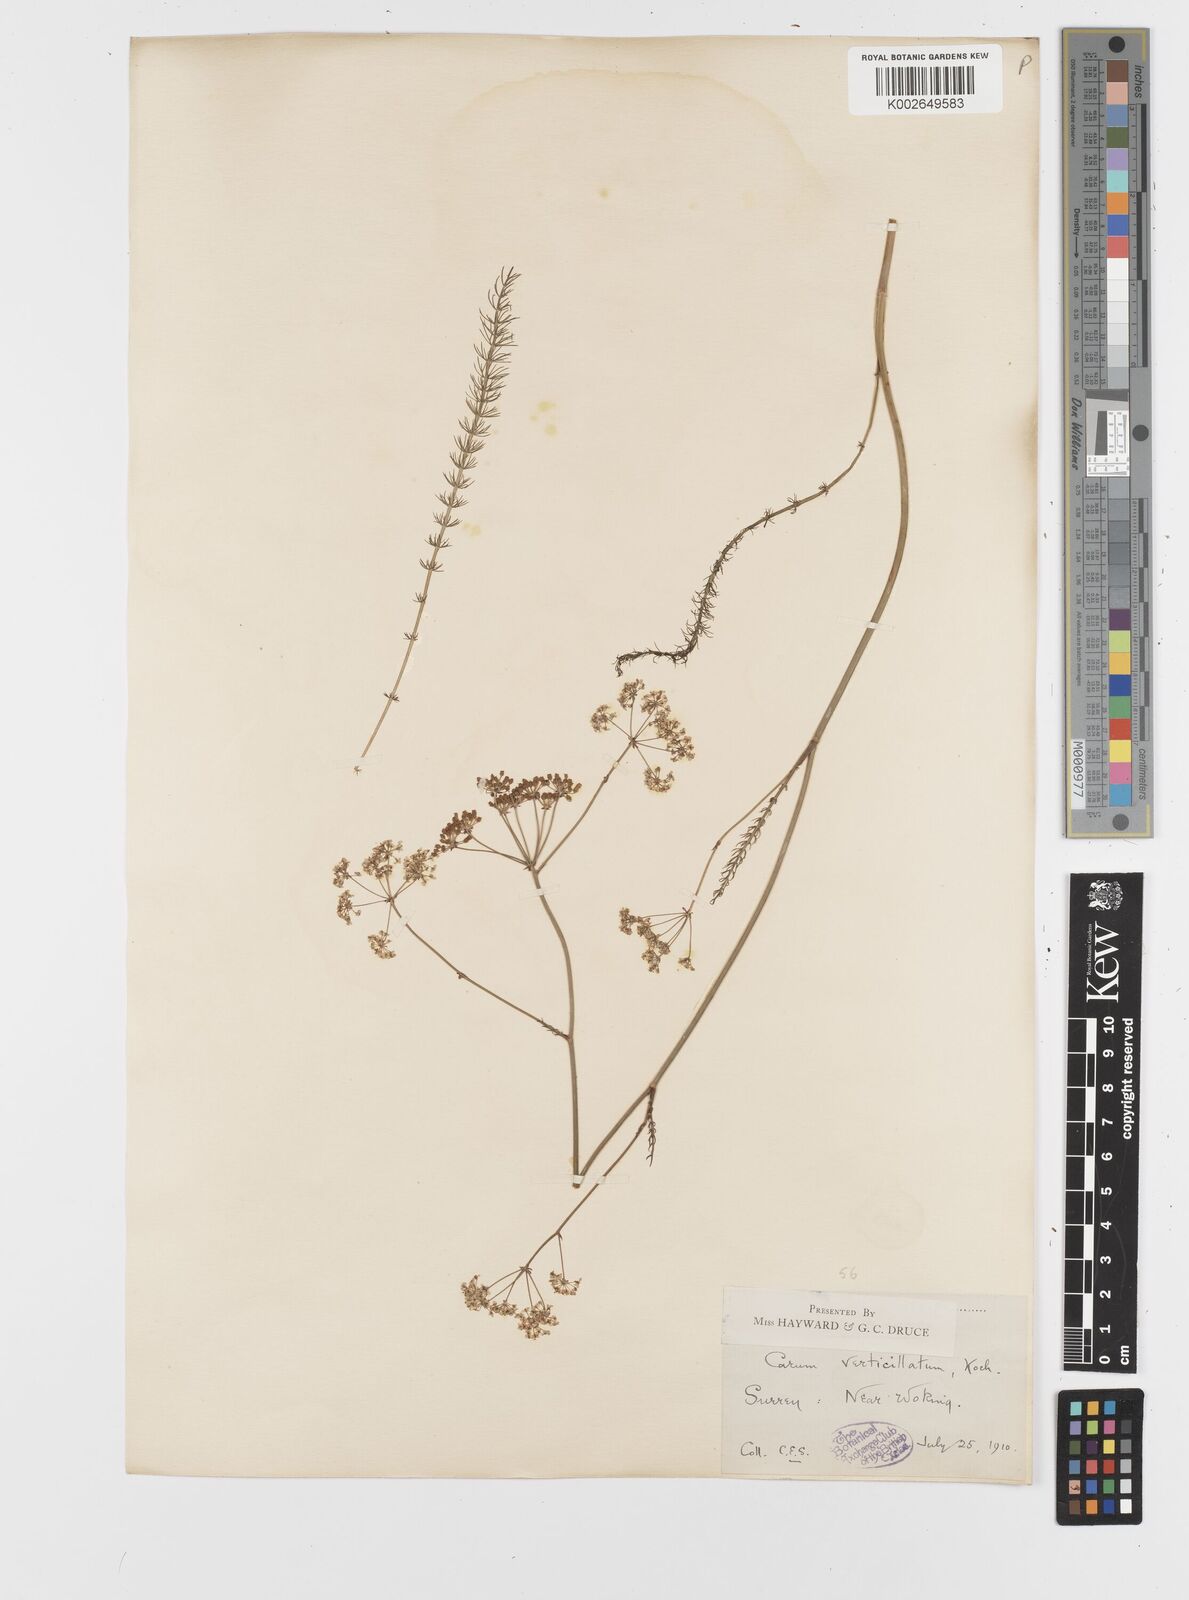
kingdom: Plantae
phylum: Tracheophyta
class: Magnoliopsida
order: Apiales
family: Apiaceae
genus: Trocdaris
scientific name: Trocdaris verticillatum
